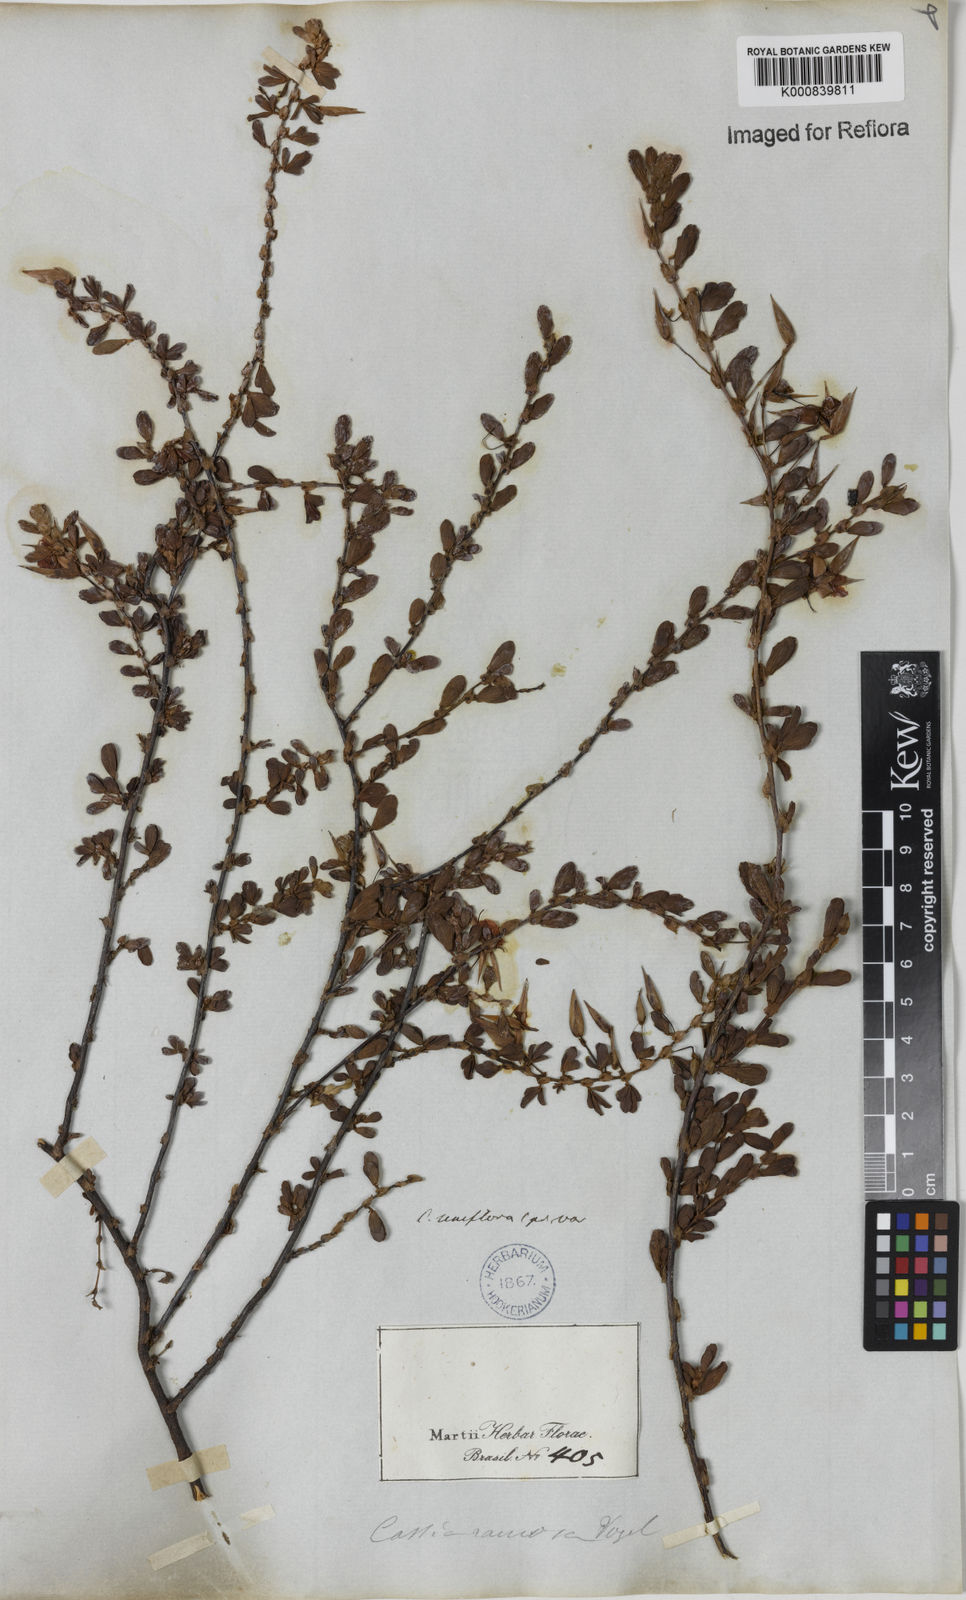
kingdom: Plantae
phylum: Tracheophyta
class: Magnoliopsida
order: Fabales
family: Fabaceae
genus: Chamaecrista
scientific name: Chamaecrista ramosa
